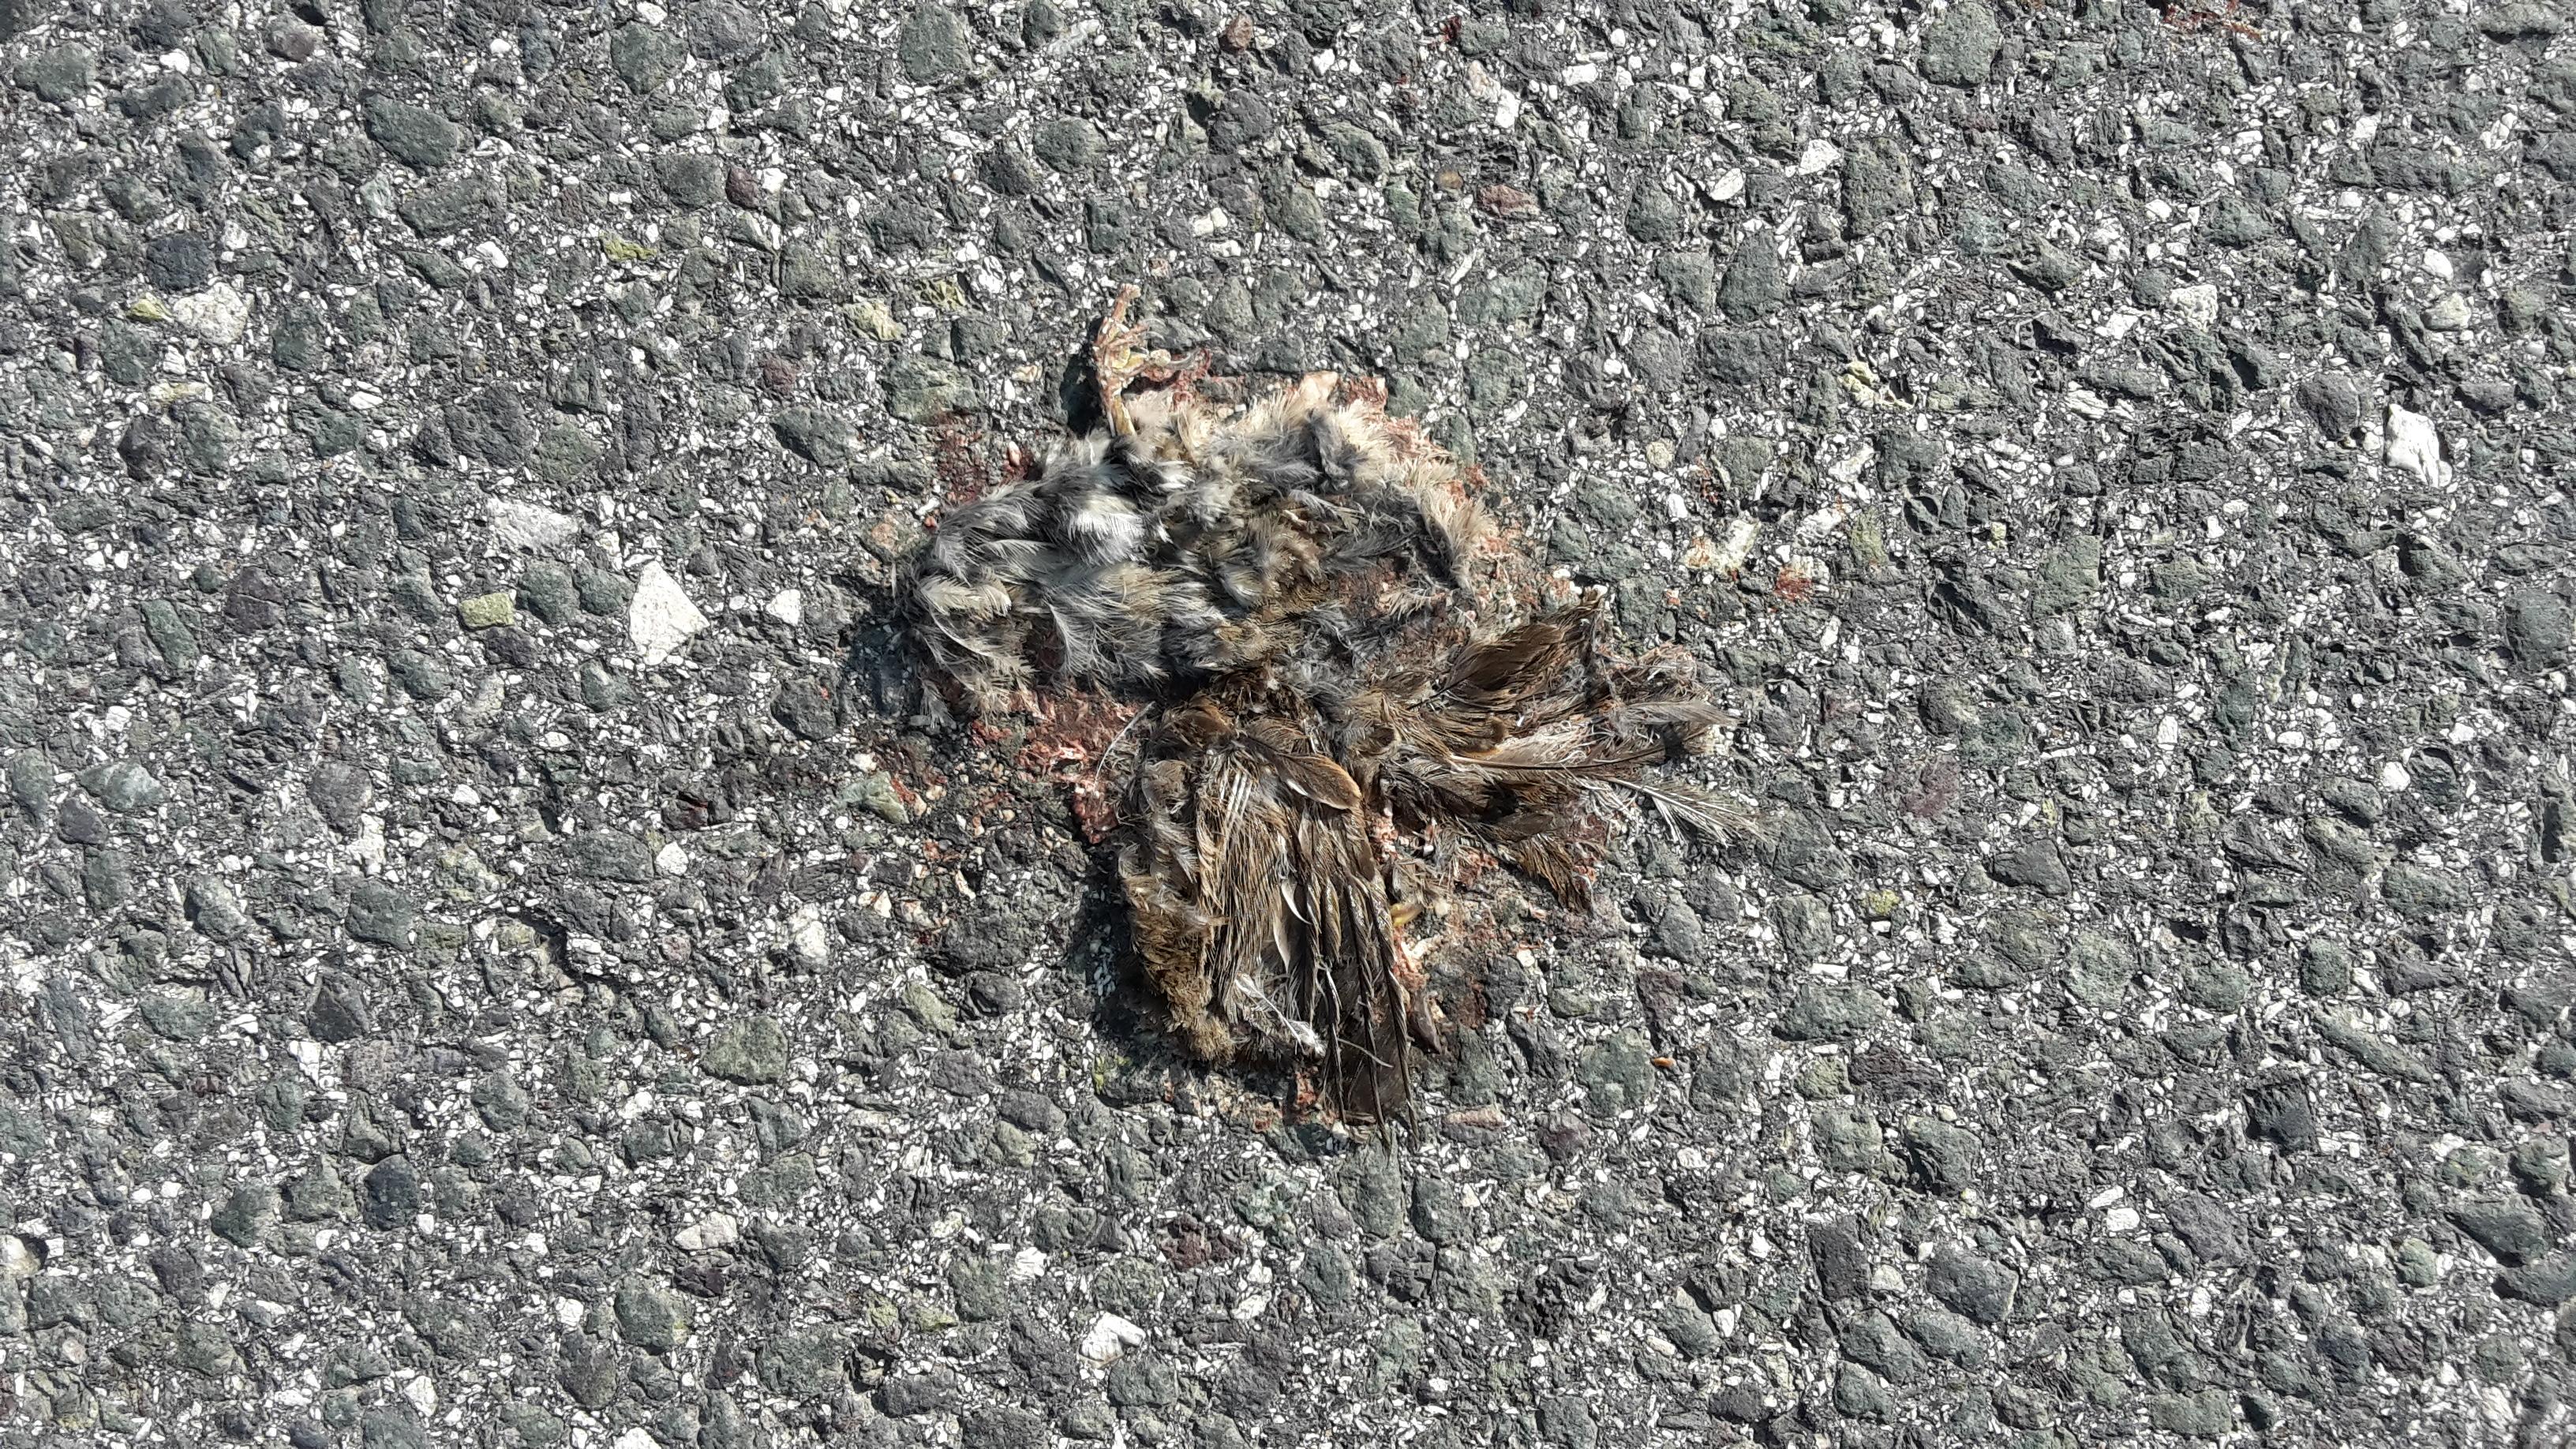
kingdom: Animalia
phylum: Chordata
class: Aves
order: Passeriformes
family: Passeridae
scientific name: Passeridae
